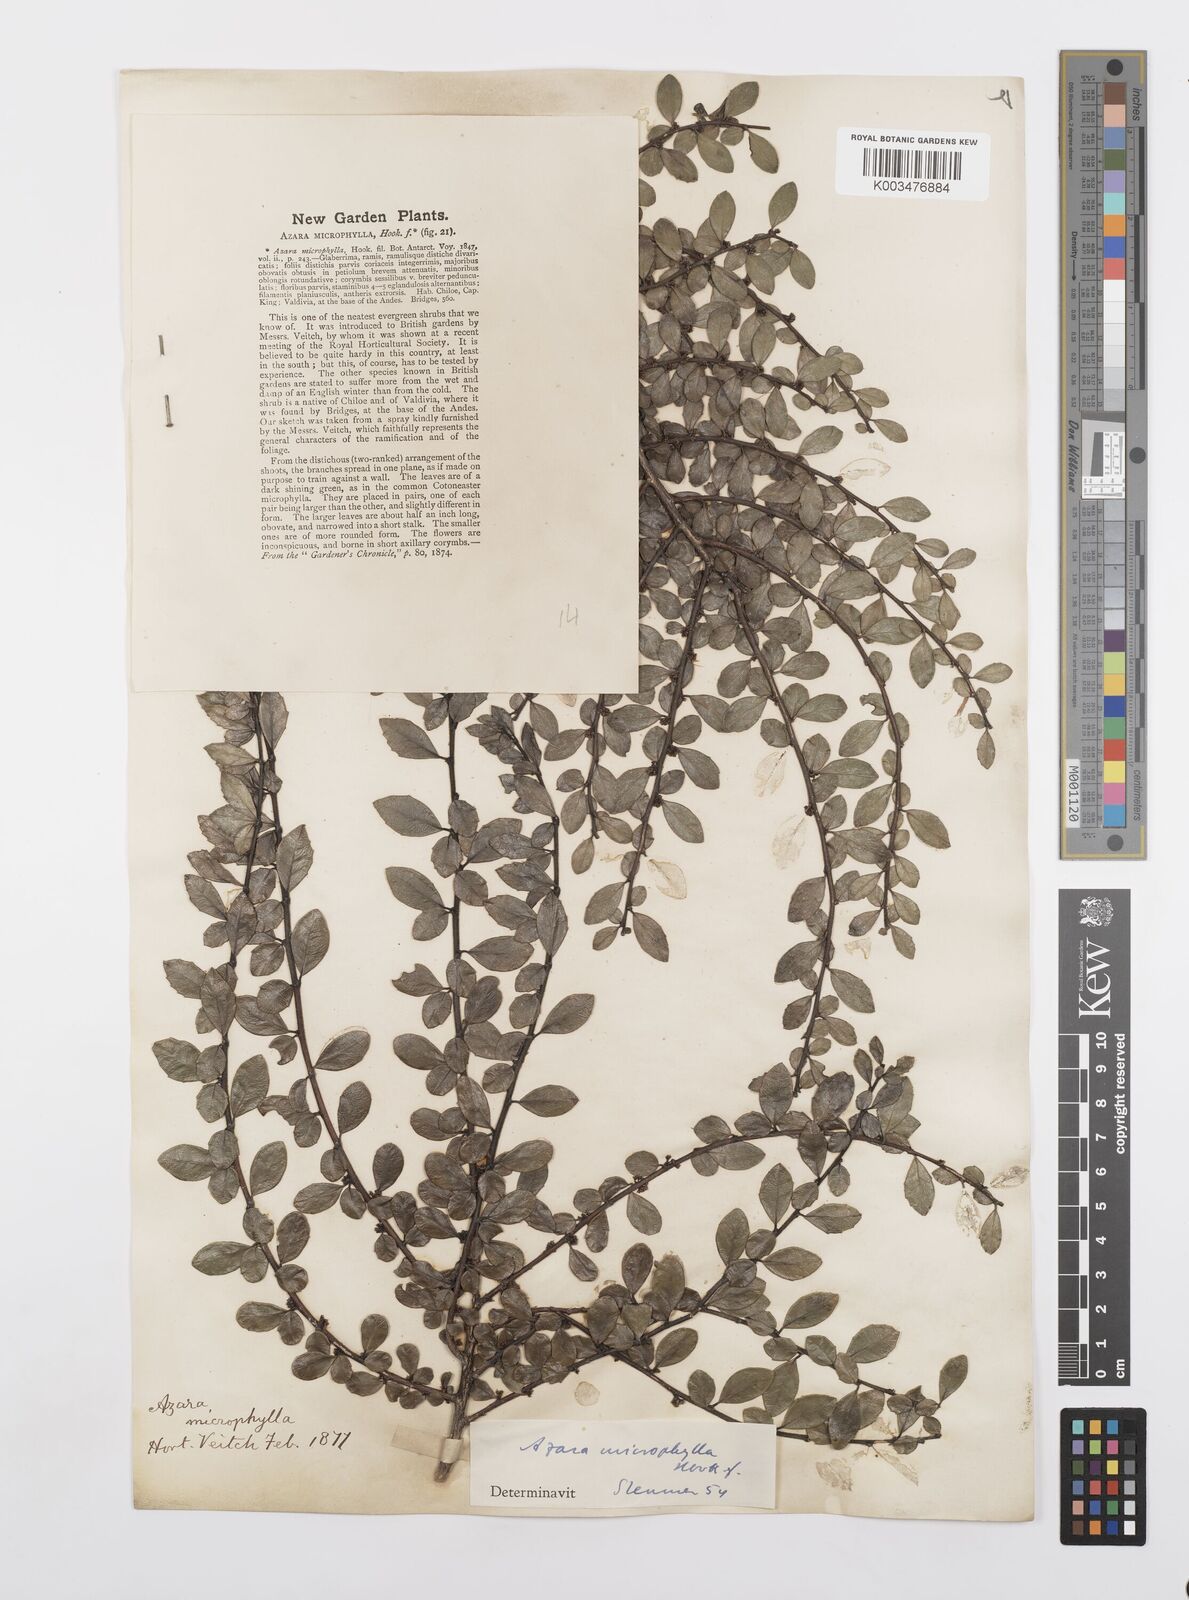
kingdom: Plantae
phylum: Tracheophyta
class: Magnoliopsida
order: Malpighiales
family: Salicaceae
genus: Azara
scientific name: Azara microphylla
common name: Box-leaf azara
